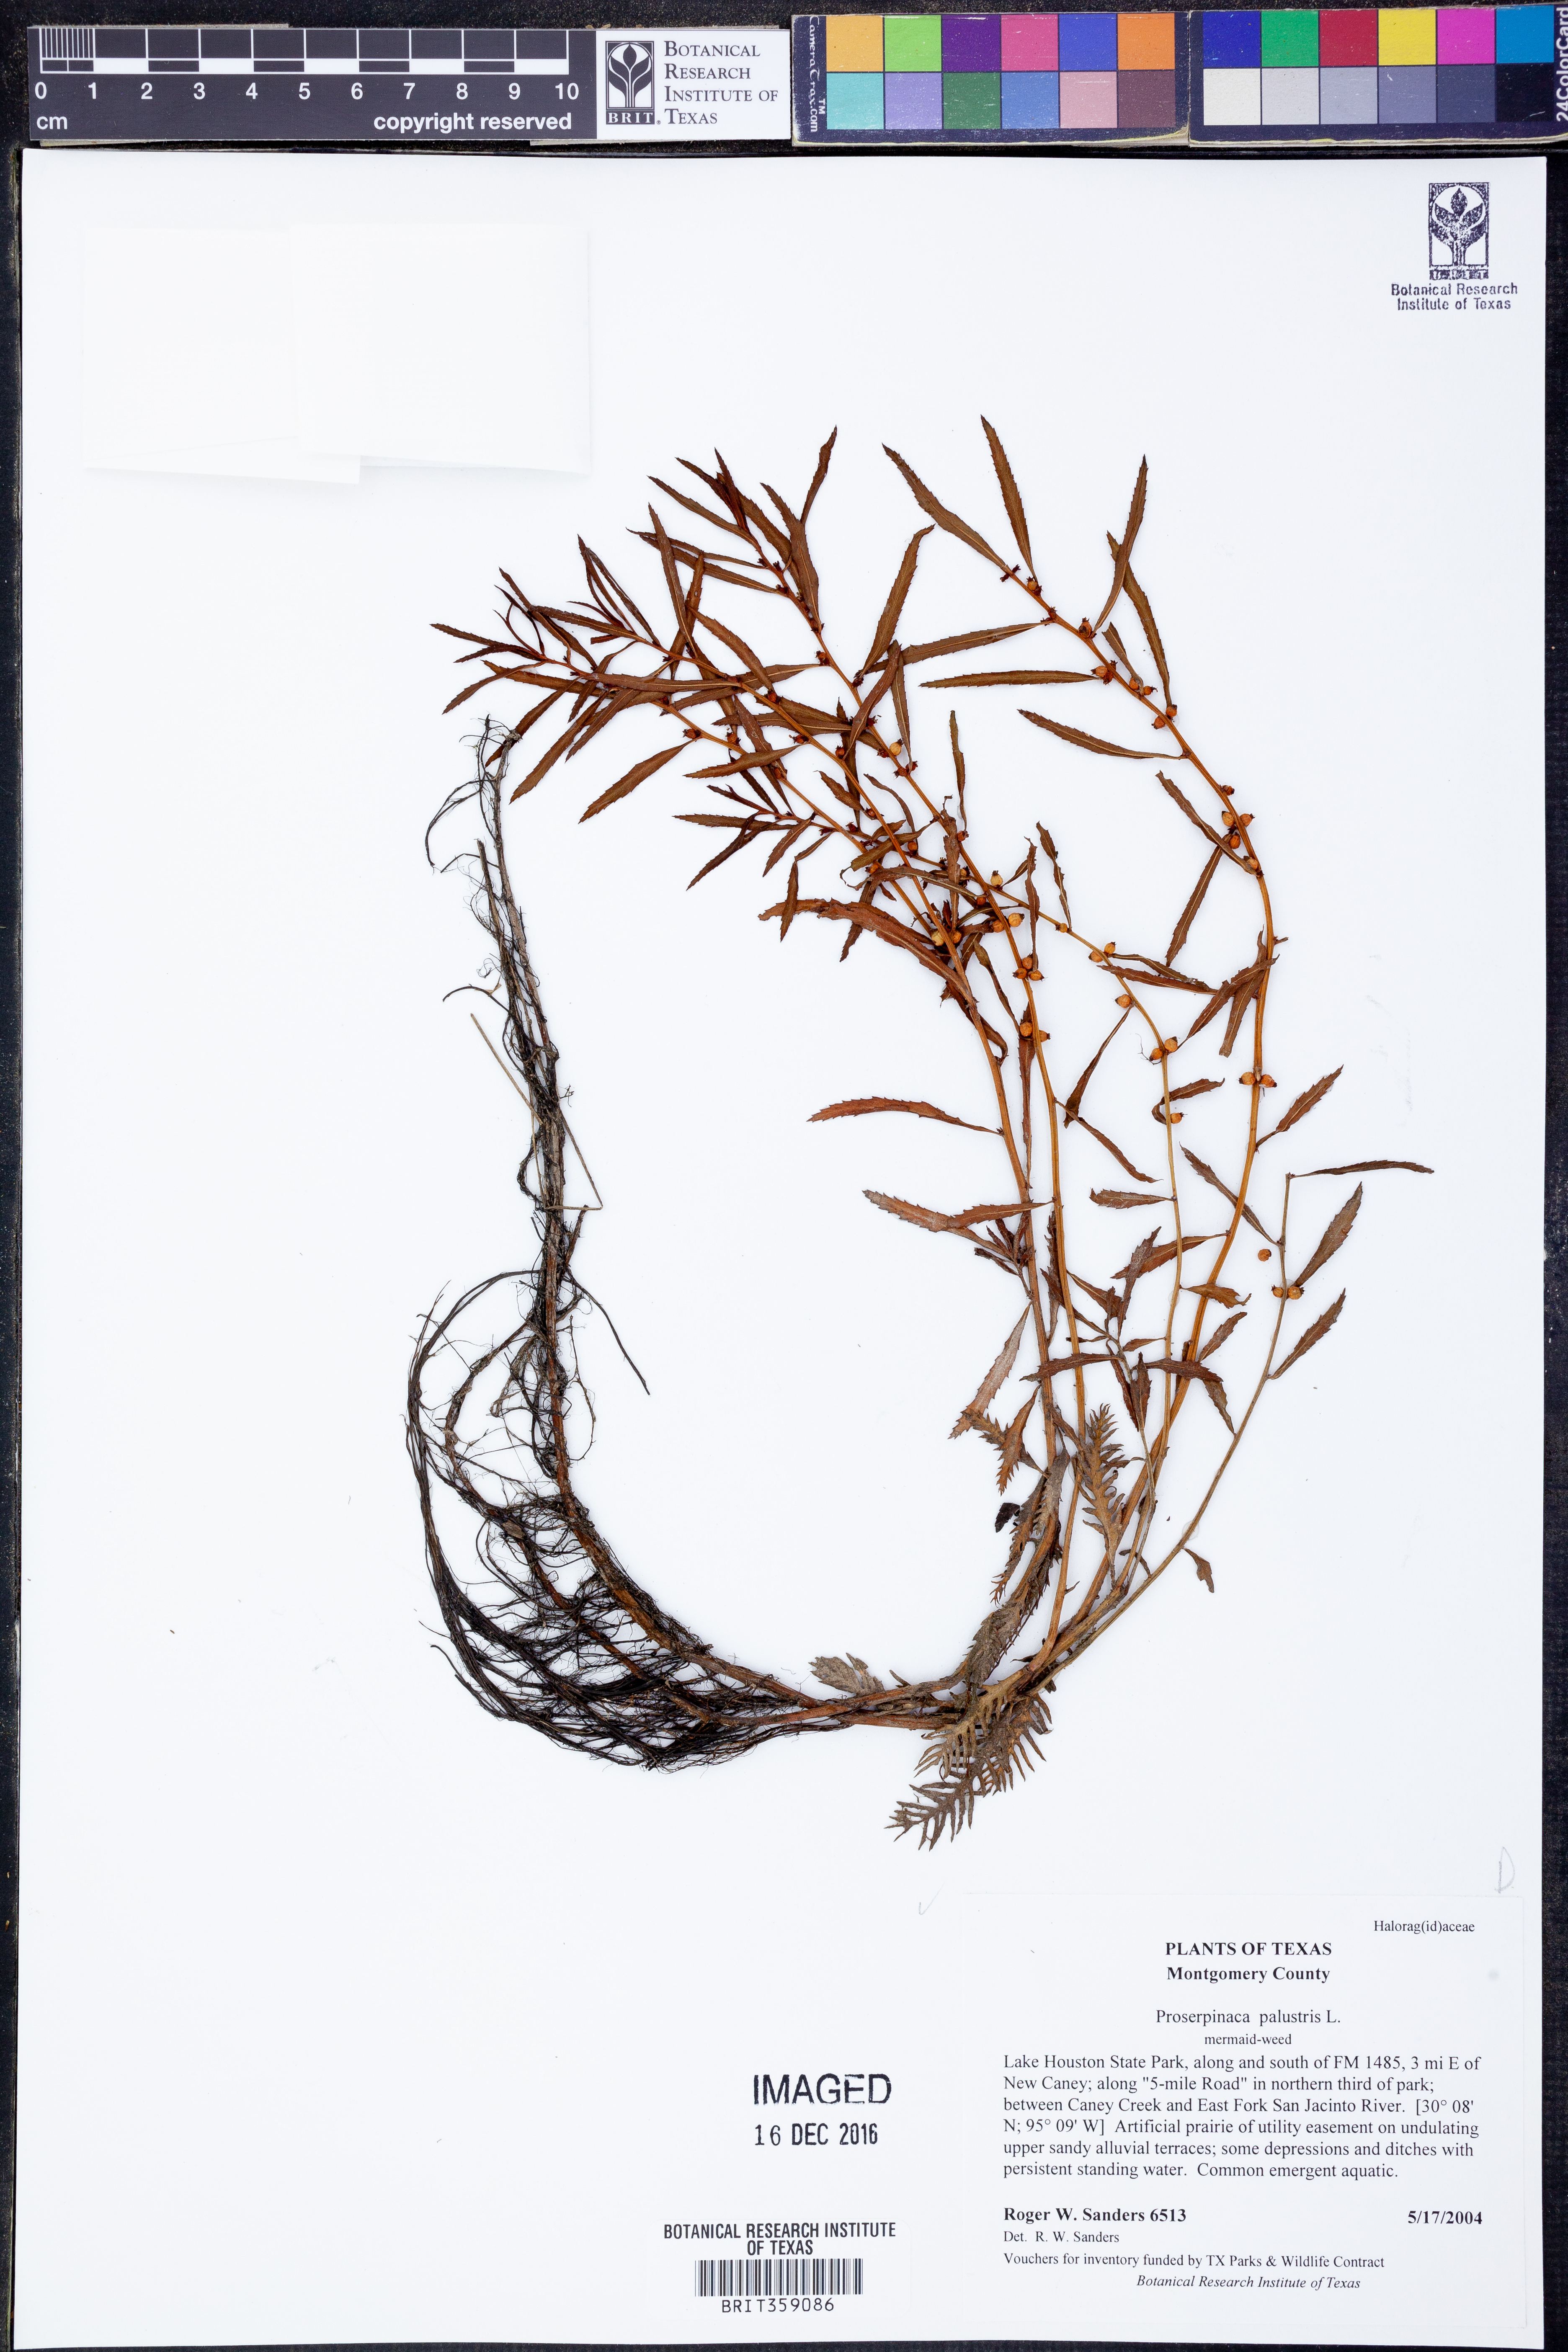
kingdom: Plantae
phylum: Tracheophyta
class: Magnoliopsida
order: Saxifragales
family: Haloragaceae
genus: Proserpinaca
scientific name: Proserpinaca palustris
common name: Marsh mermaidweed
